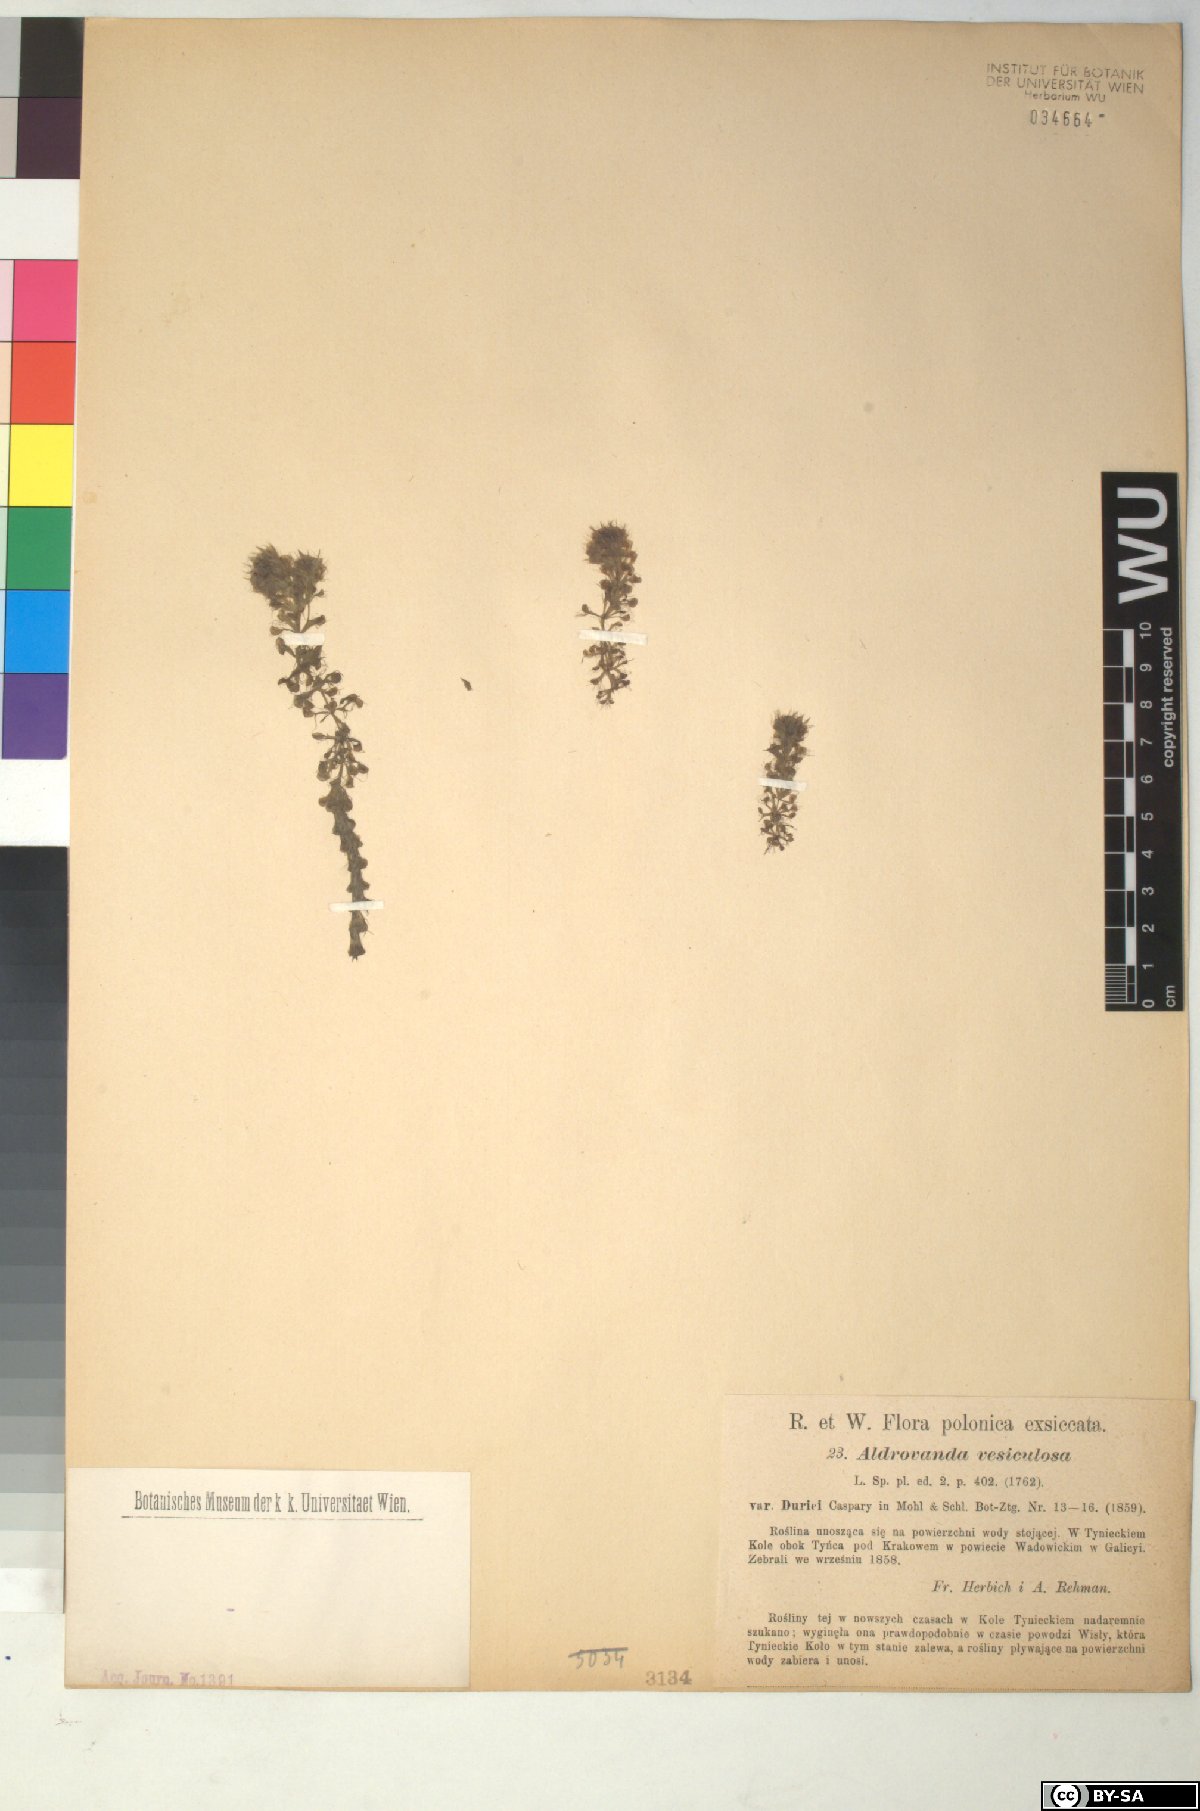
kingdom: Plantae
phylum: Tracheophyta
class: Magnoliopsida
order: Caryophyllales
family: Droseraceae
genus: Aldrovanda
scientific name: Aldrovanda vesiculosa
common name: Waterwheel plant
